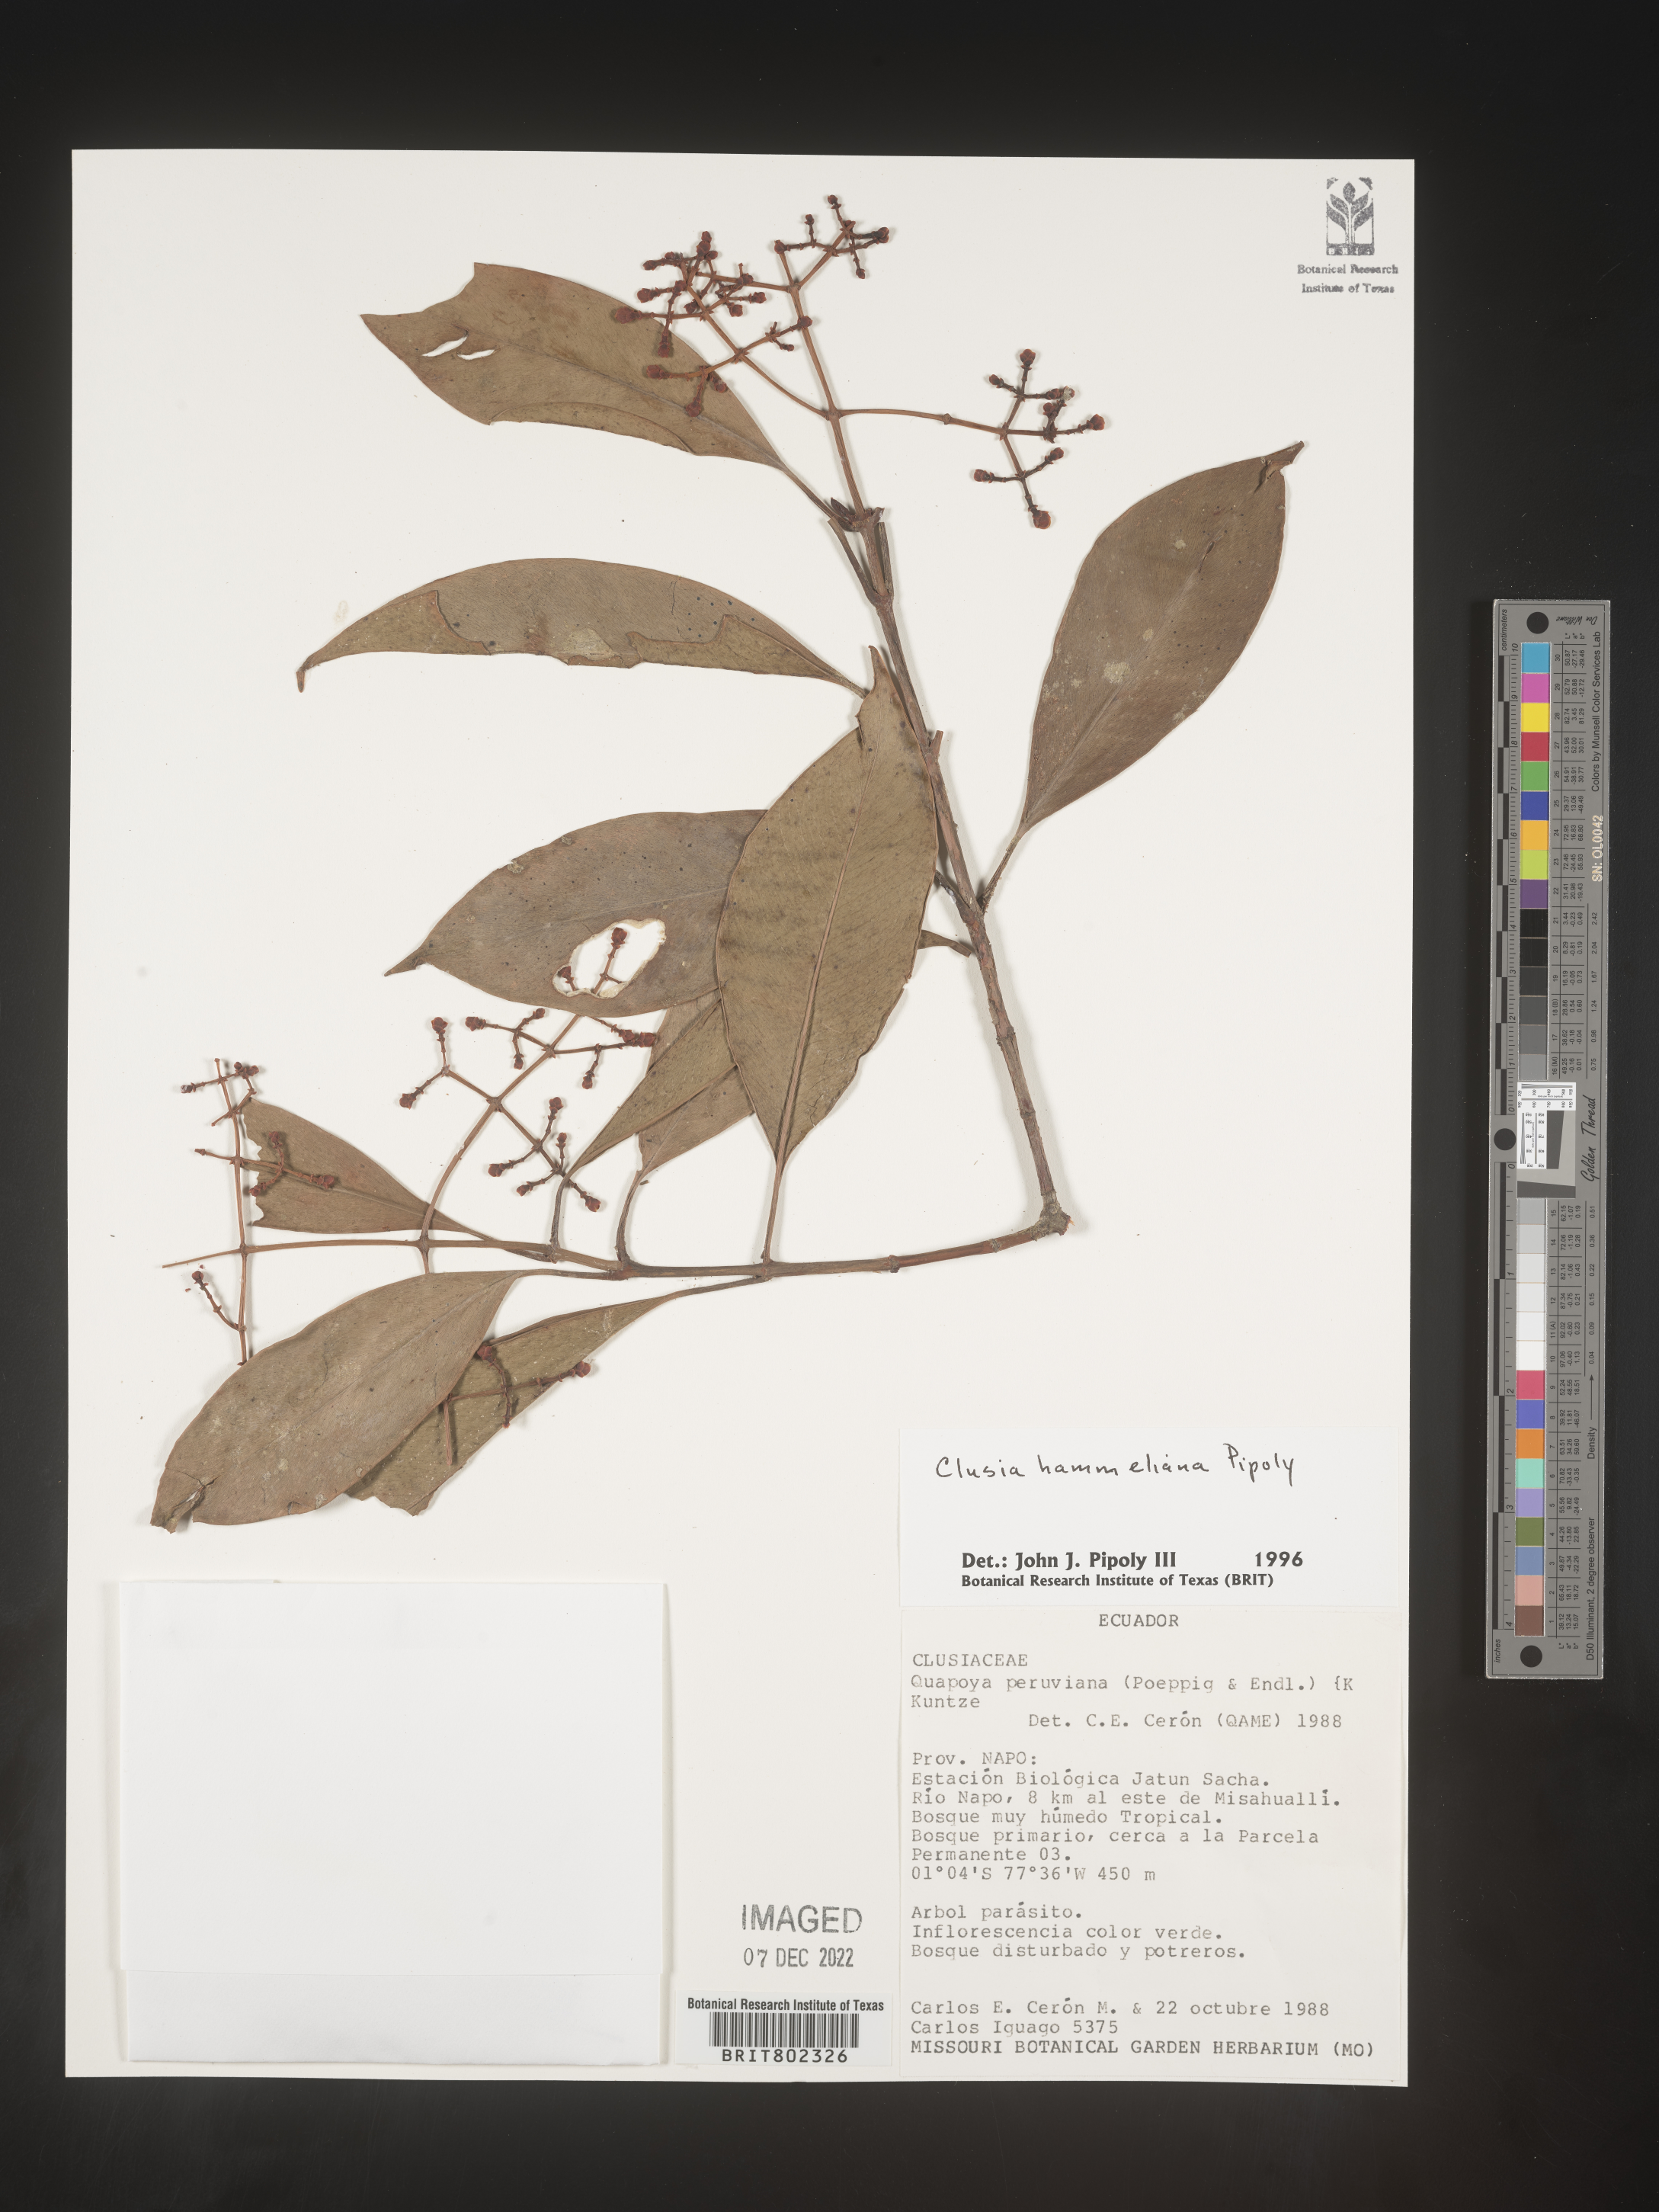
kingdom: Plantae
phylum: Tracheophyta
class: Magnoliopsida
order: Malpighiales
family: Clusiaceae
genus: Clusia
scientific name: Clusia hammeliana
